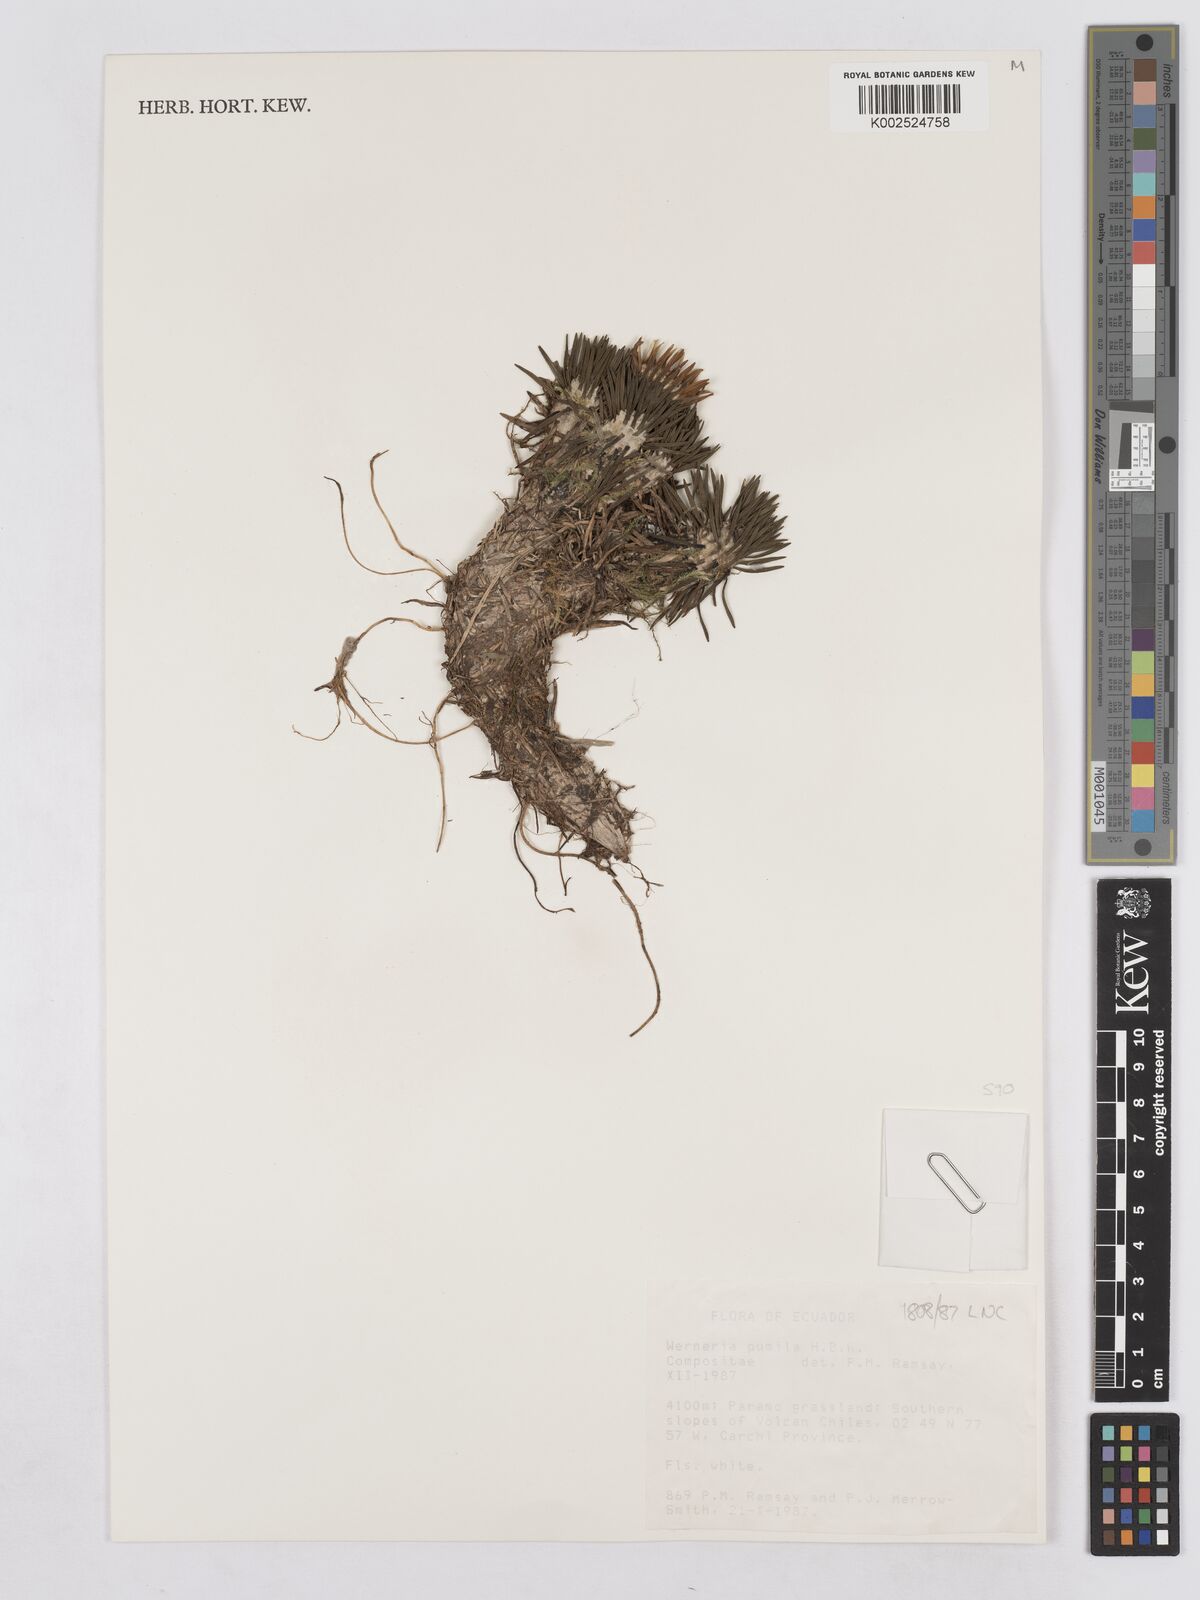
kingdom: Plantae
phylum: Tracheophyta
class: Magnoliopsida
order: Asterales
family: Asteraceae
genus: Rockhausenia
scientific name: Rockhausenia pumila
